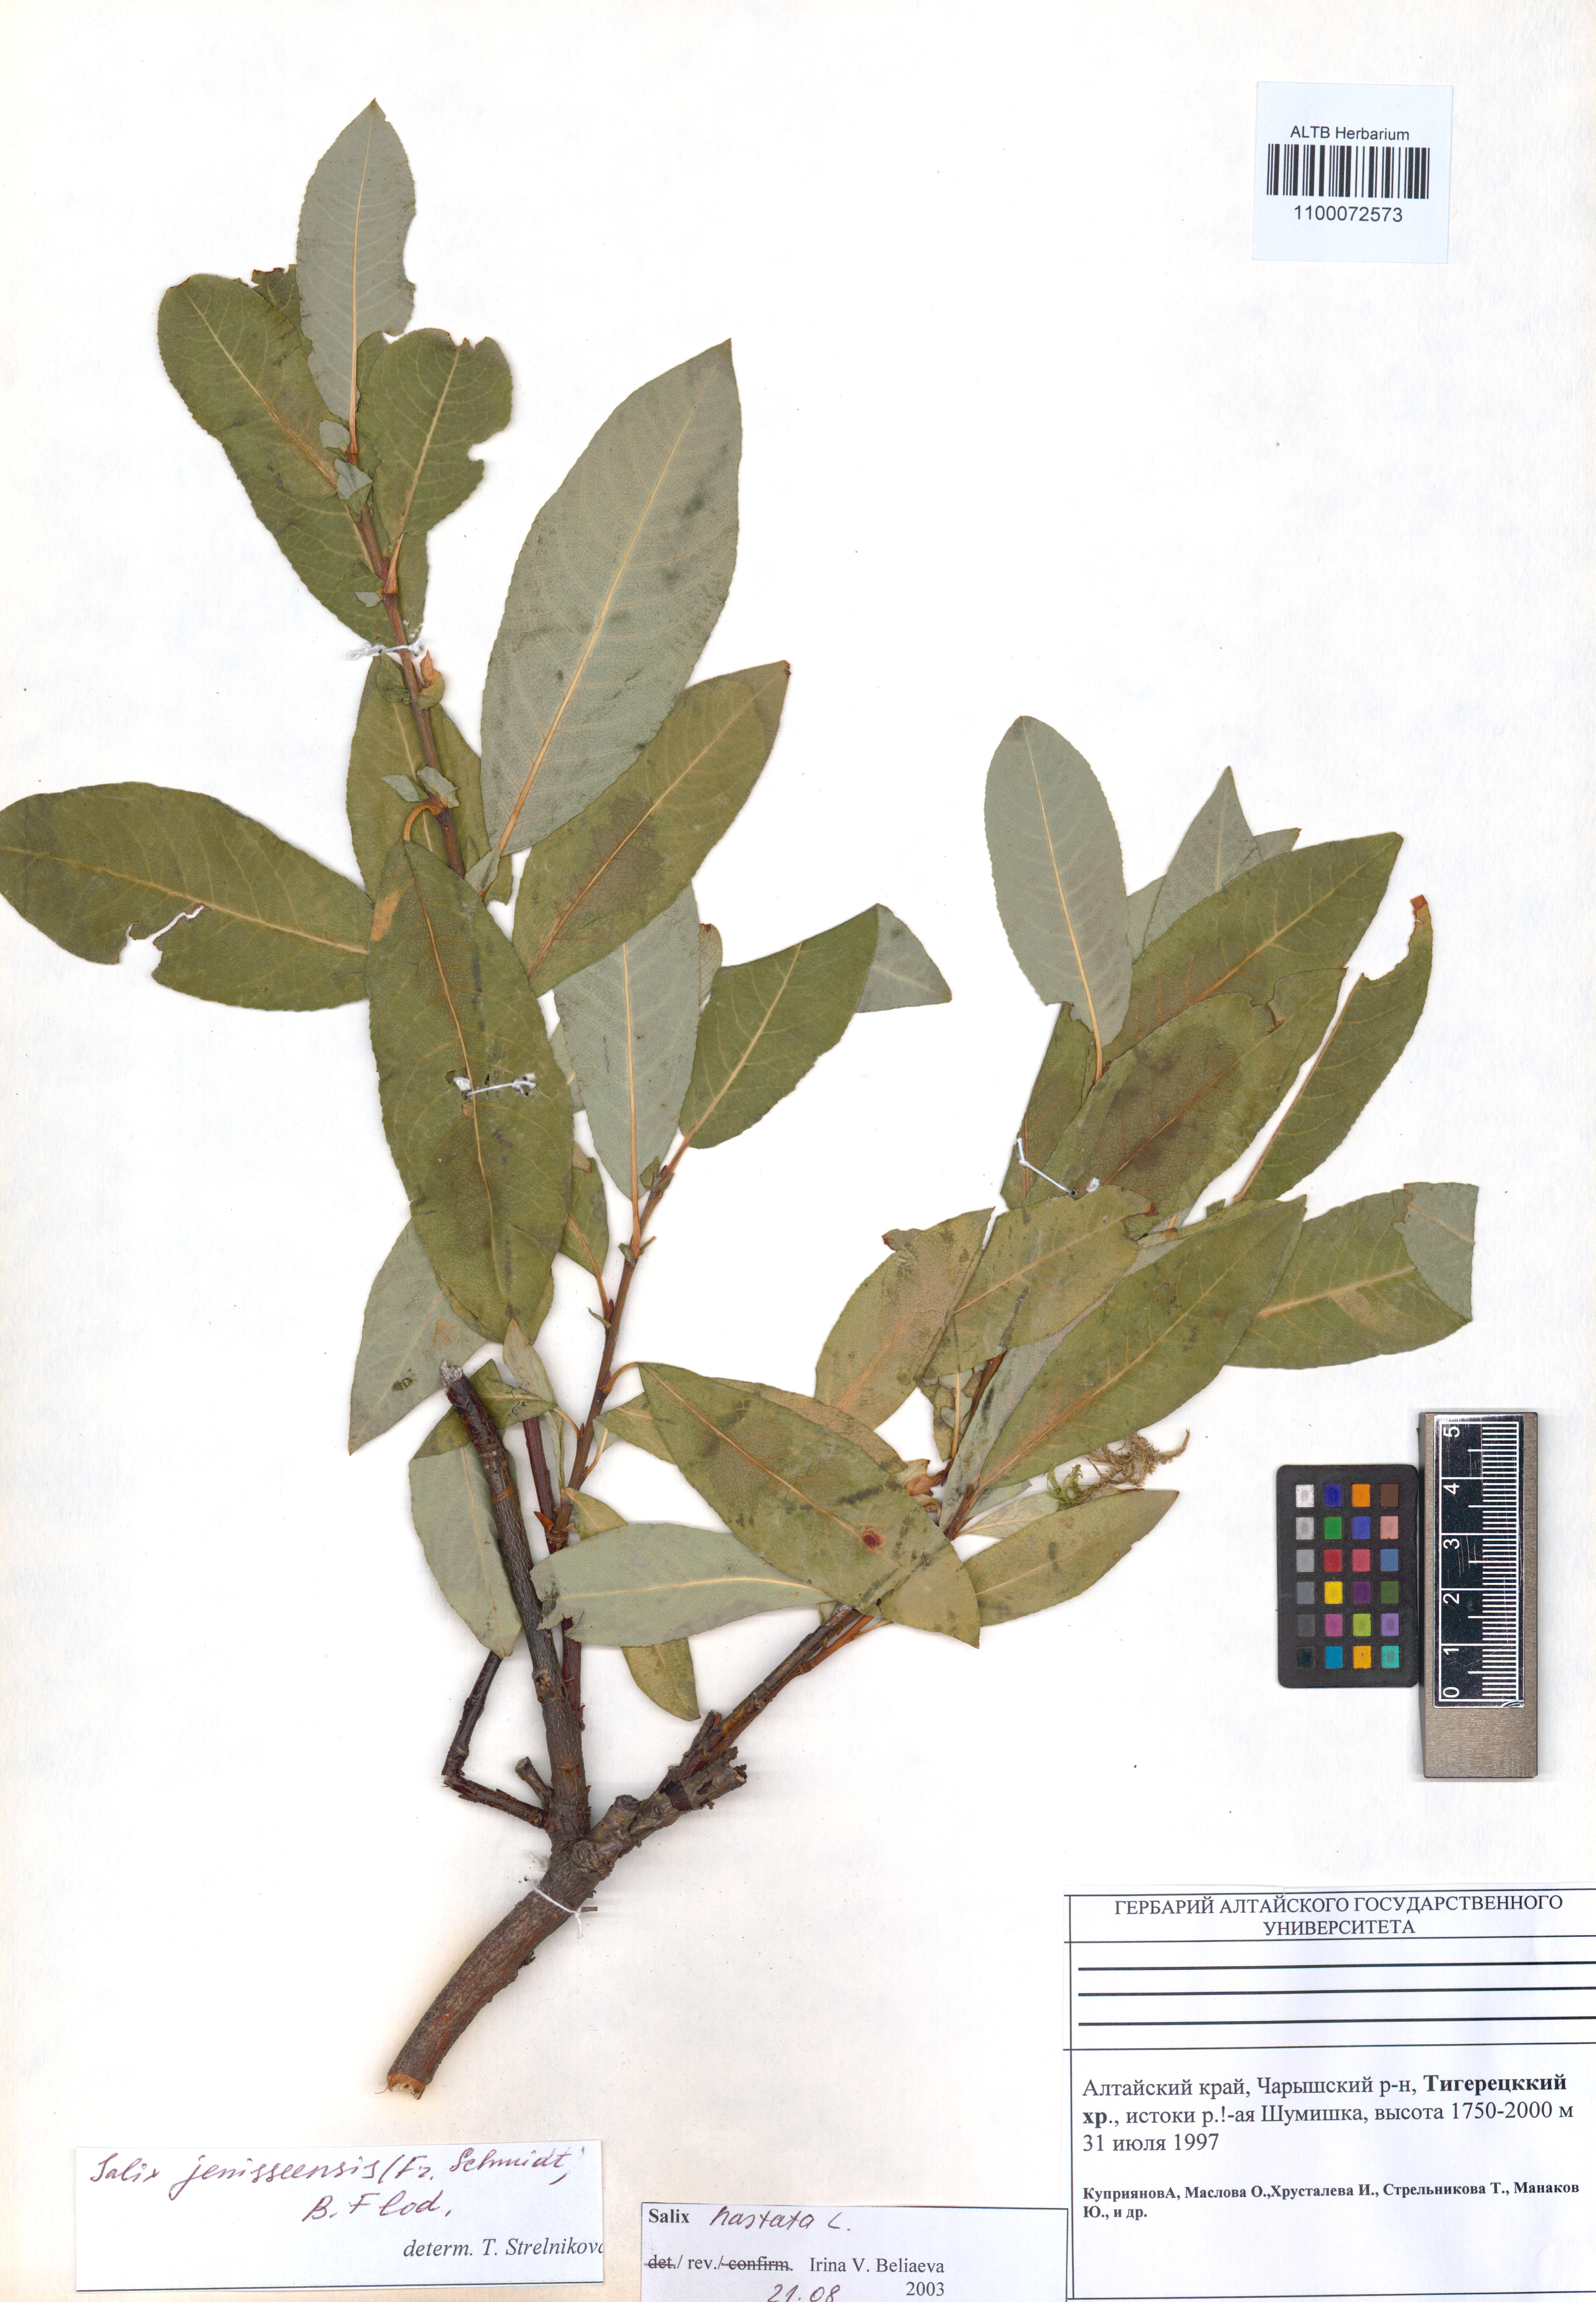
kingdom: Plantae
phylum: Tracheophyta
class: Magnoliopsida
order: Malpighiales
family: Salicaceae
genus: Salix
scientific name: Salix hastata
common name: Halberd willow
